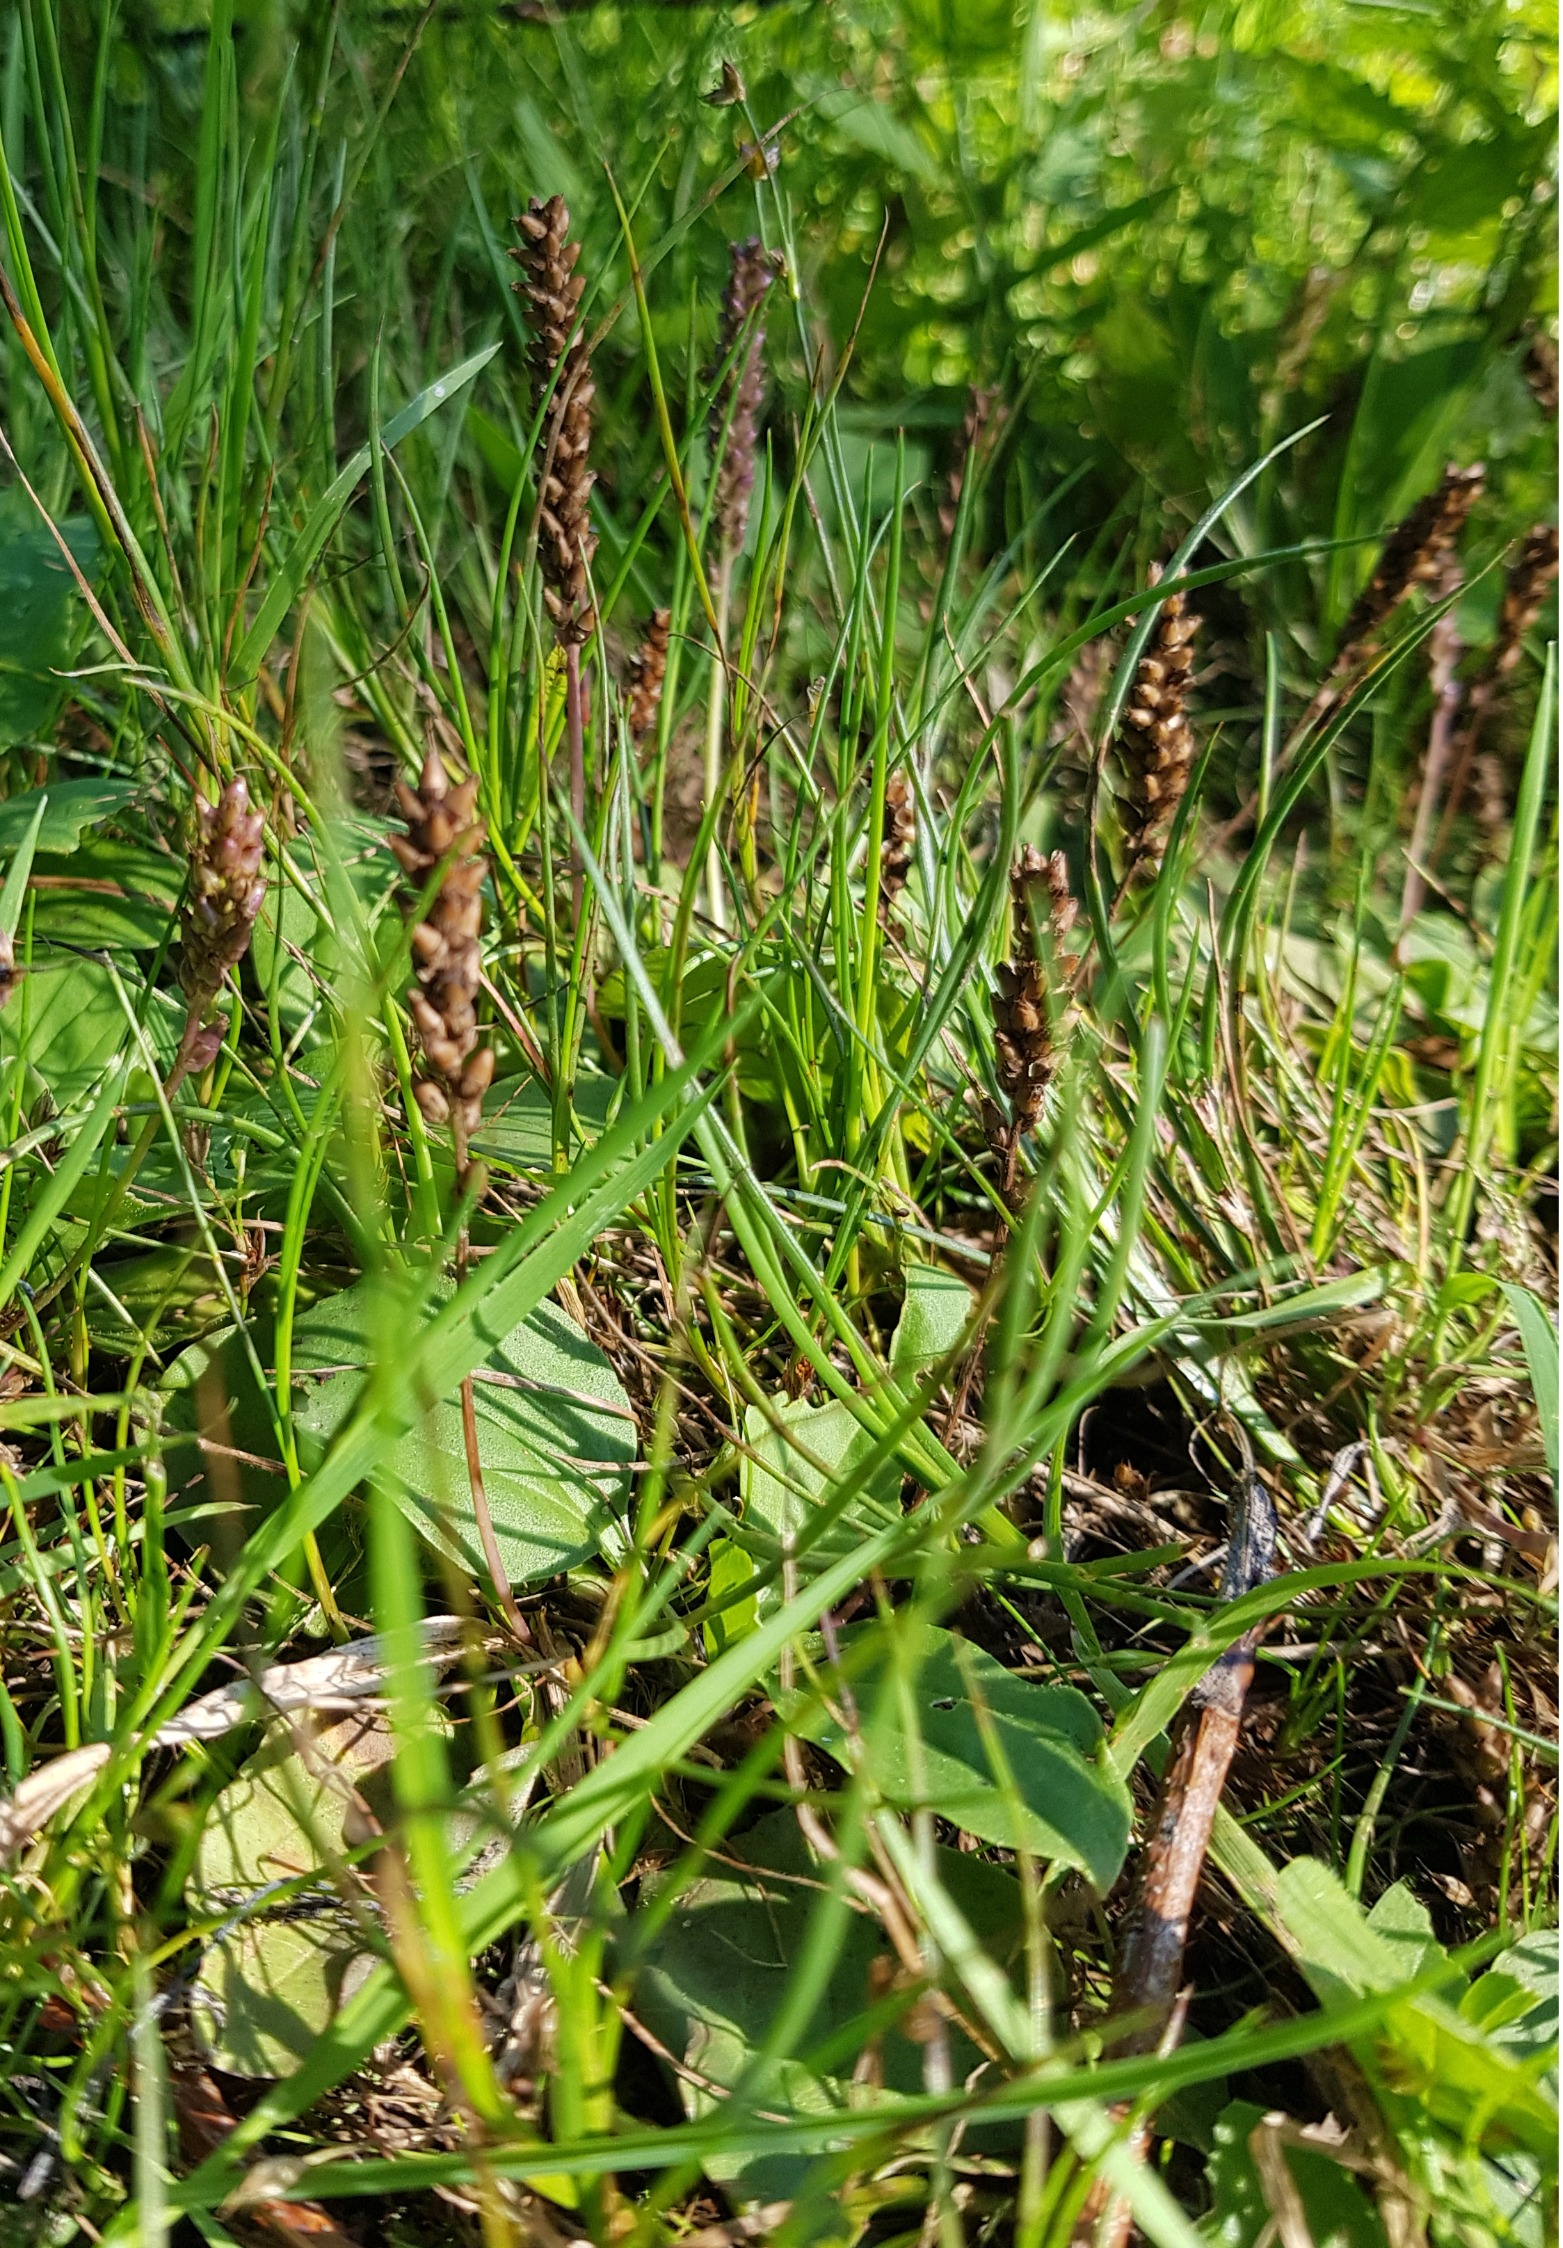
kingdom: Plantae
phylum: Tracheophyta
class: Magnoliopsida
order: Lamiales
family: Plantaginaceae
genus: Plantago
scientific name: Plantago major
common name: Glat vejbred
